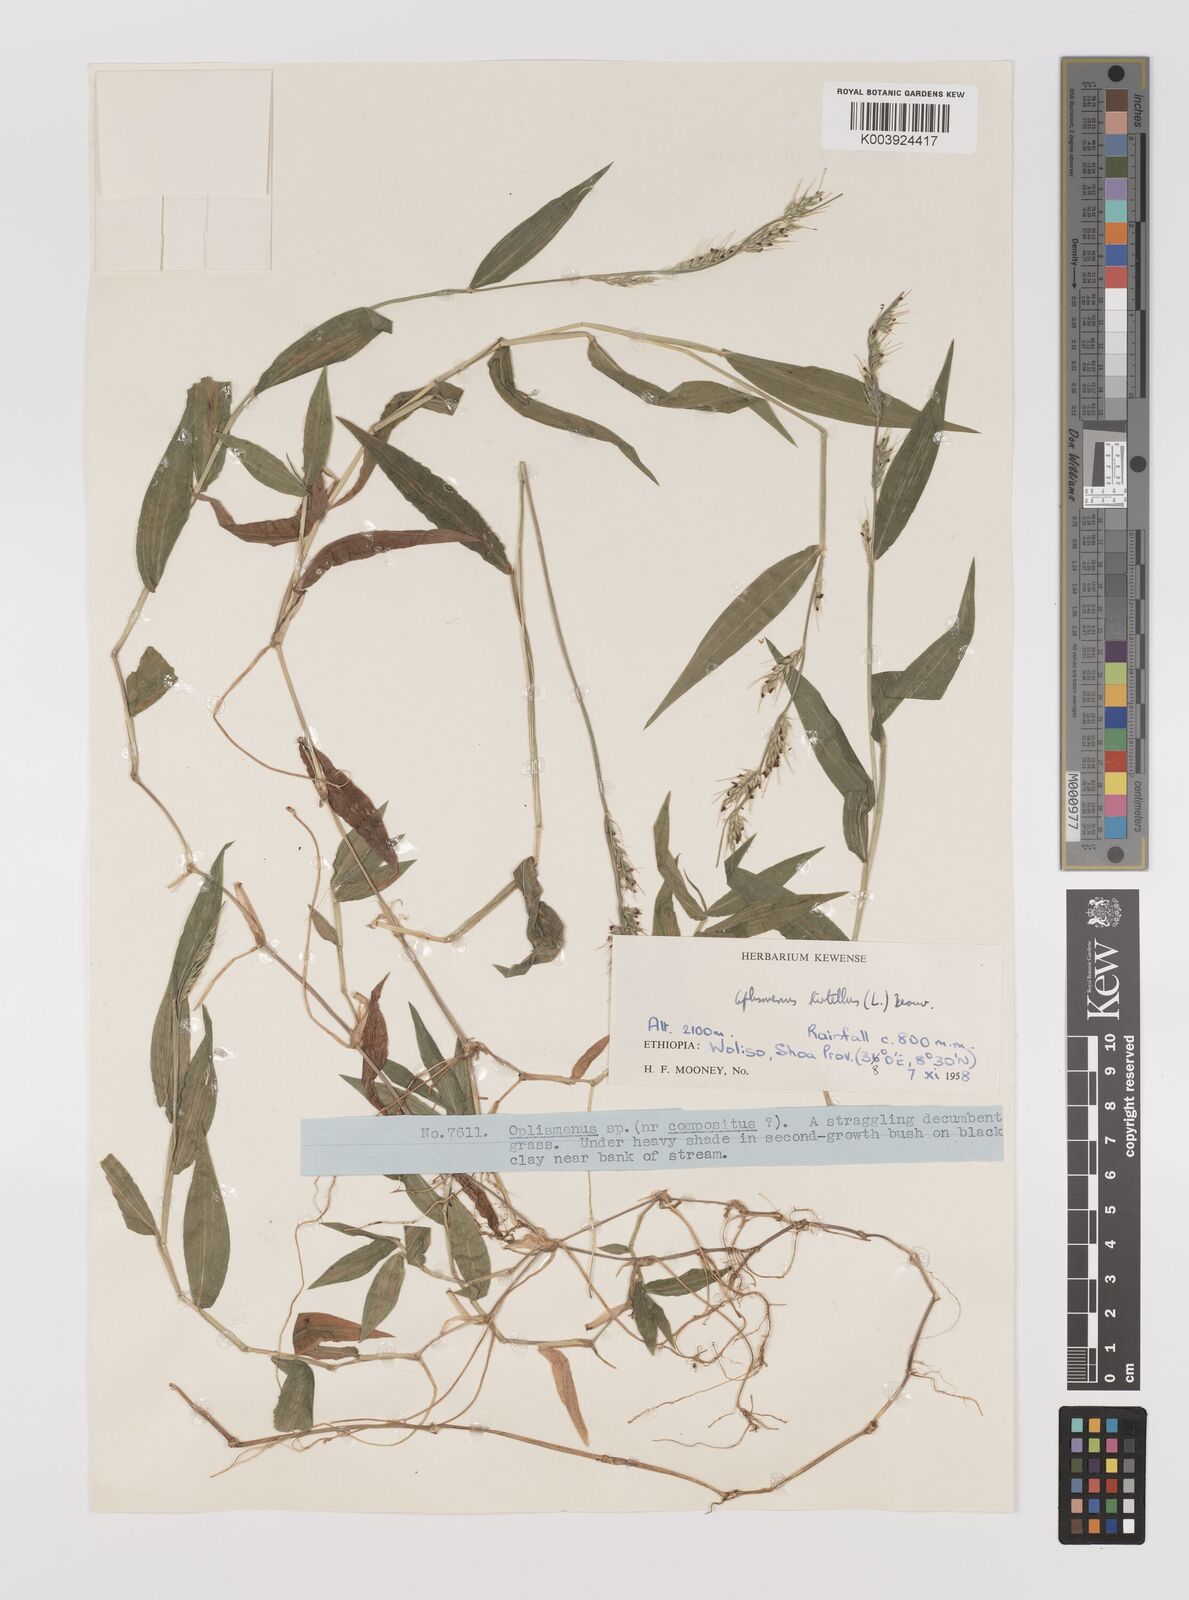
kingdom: Plantae
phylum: Tracheophyta
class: Liliopsida
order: Poales
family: Poaceae
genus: Oplismenus
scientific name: Oplismenus hirtellus
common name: Basketgrass
